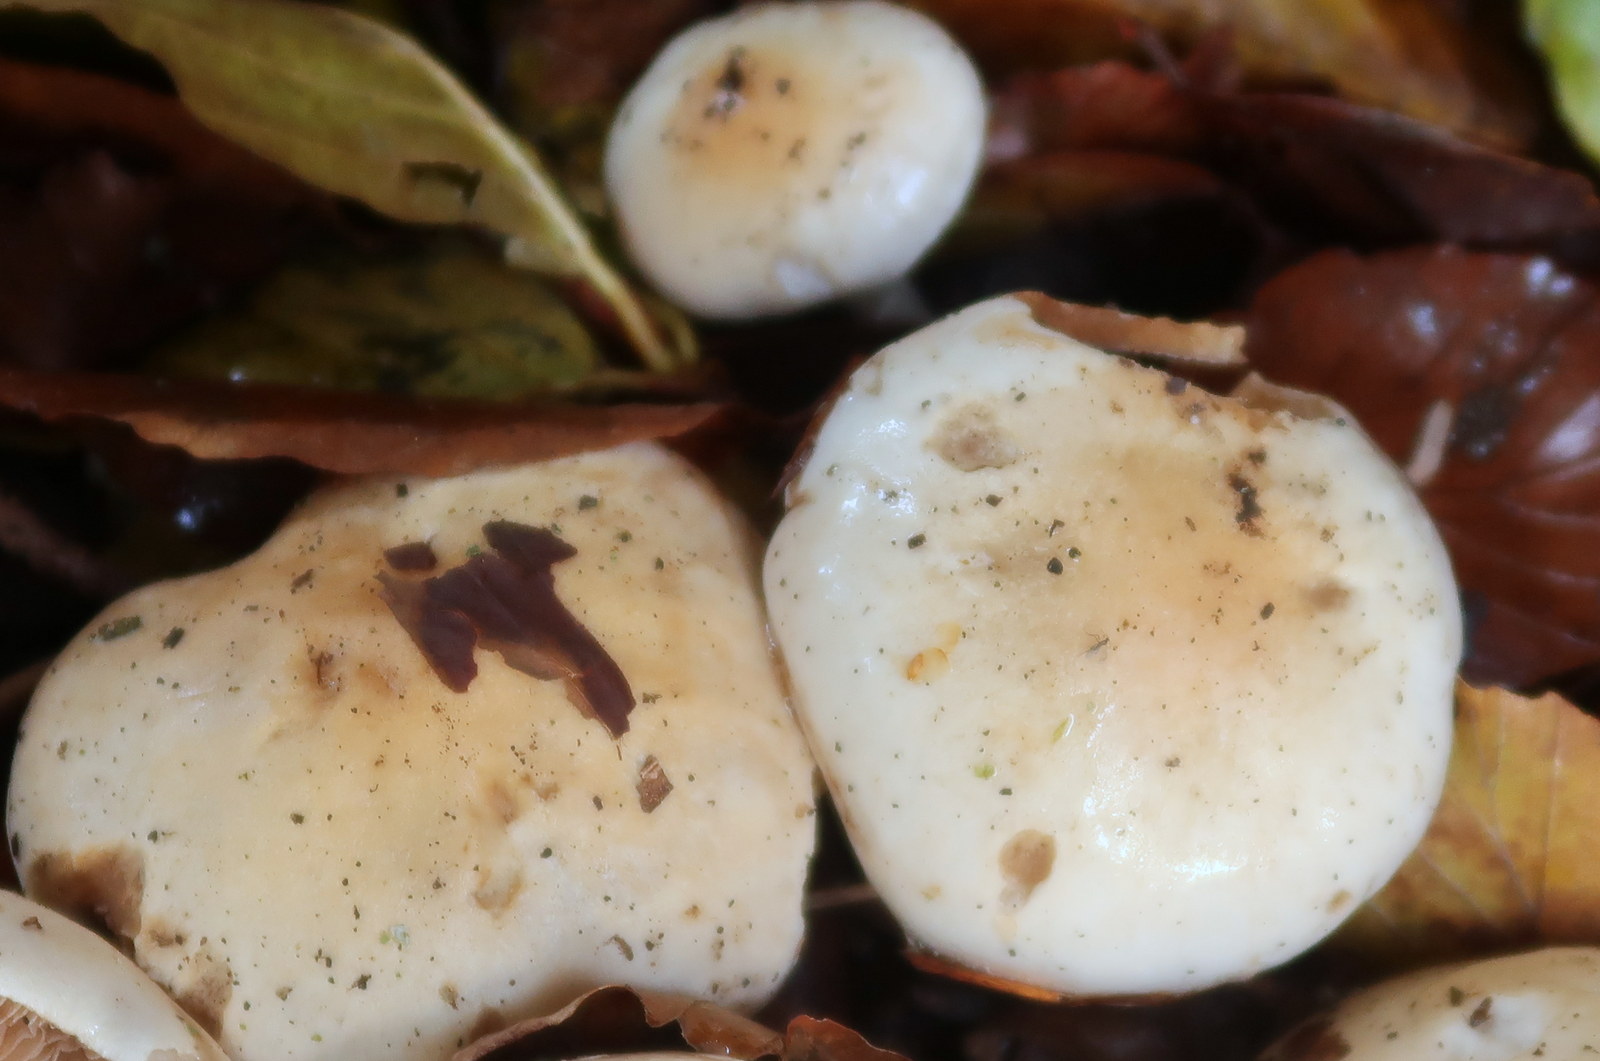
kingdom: Fungi
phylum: Basidiomycota
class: Agaricomycetes
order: Agaricales
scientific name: Agaricales
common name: champignonordenen
